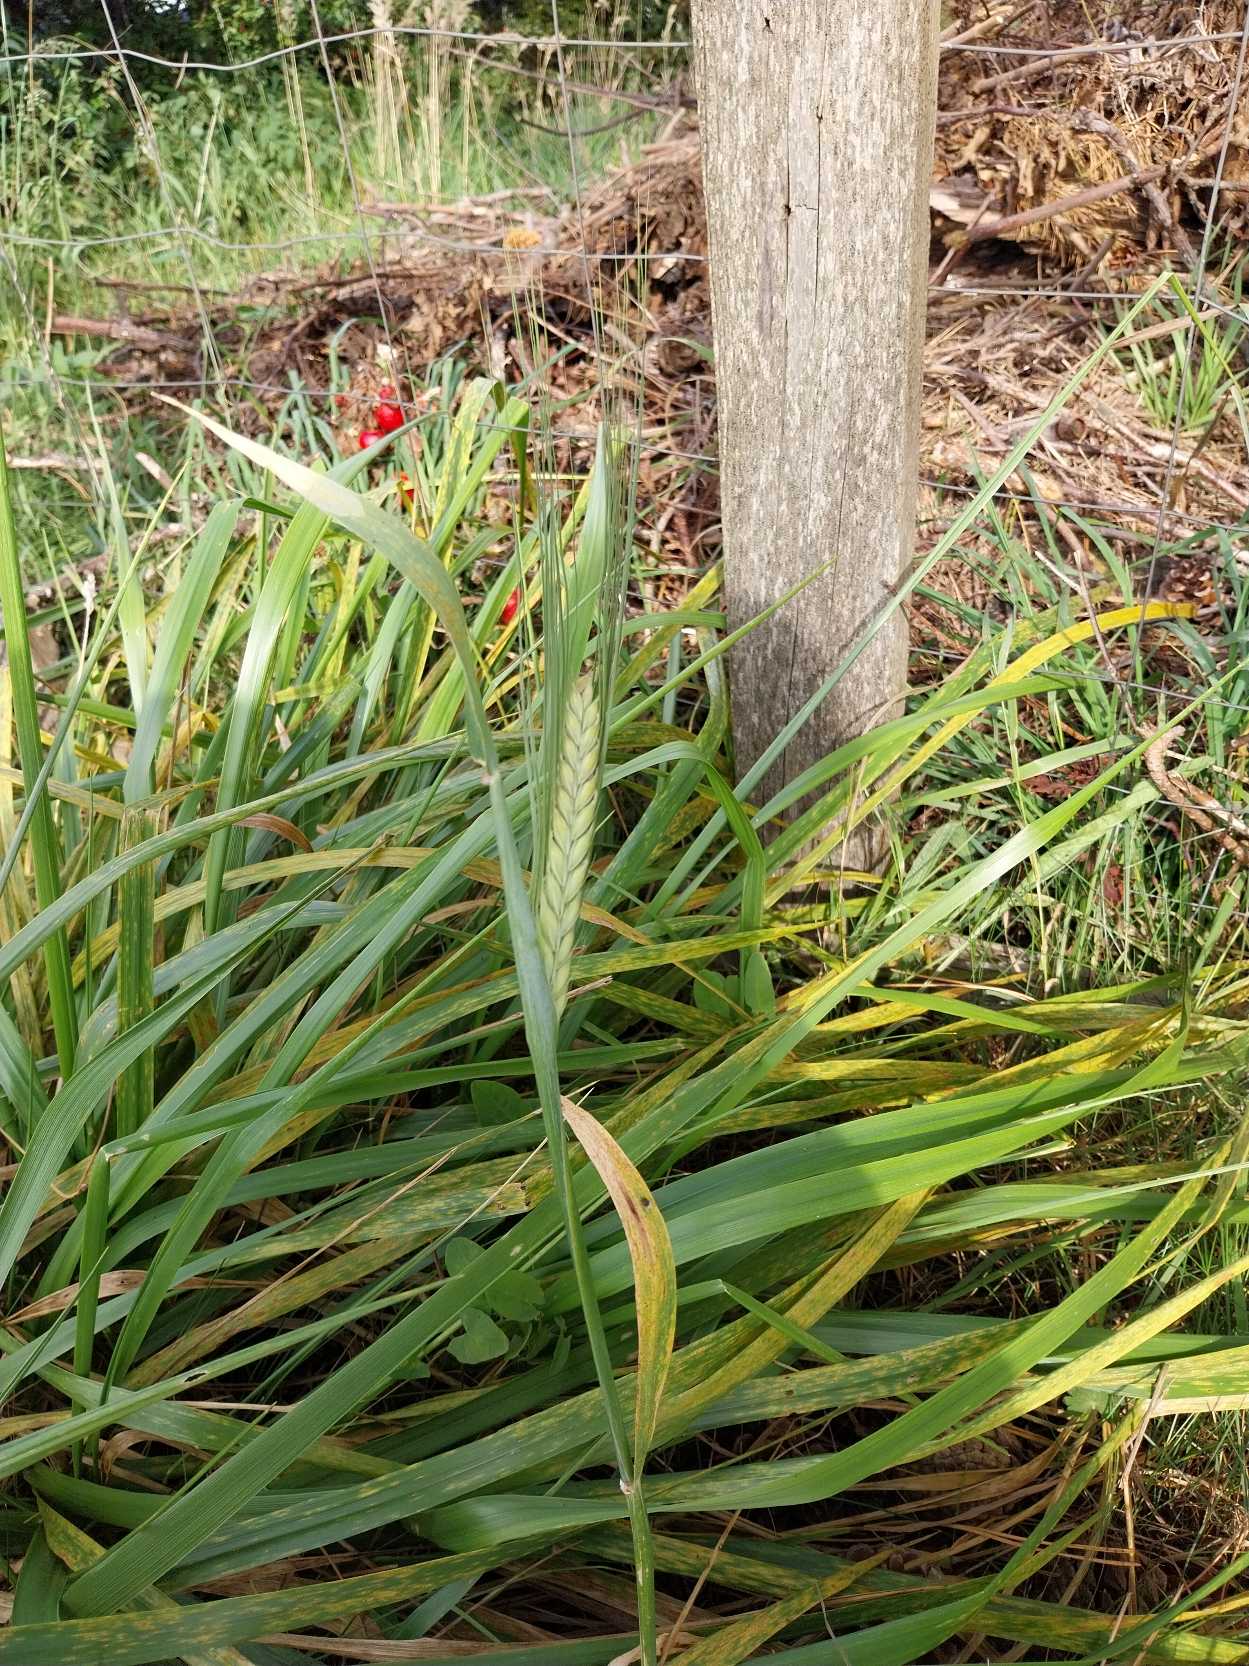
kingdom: Plantae
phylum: Tracheophyta
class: Liliopsida
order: Poales
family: Poaceae
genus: Hordeum
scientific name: Hordeum vulgare
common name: Toradet byg
